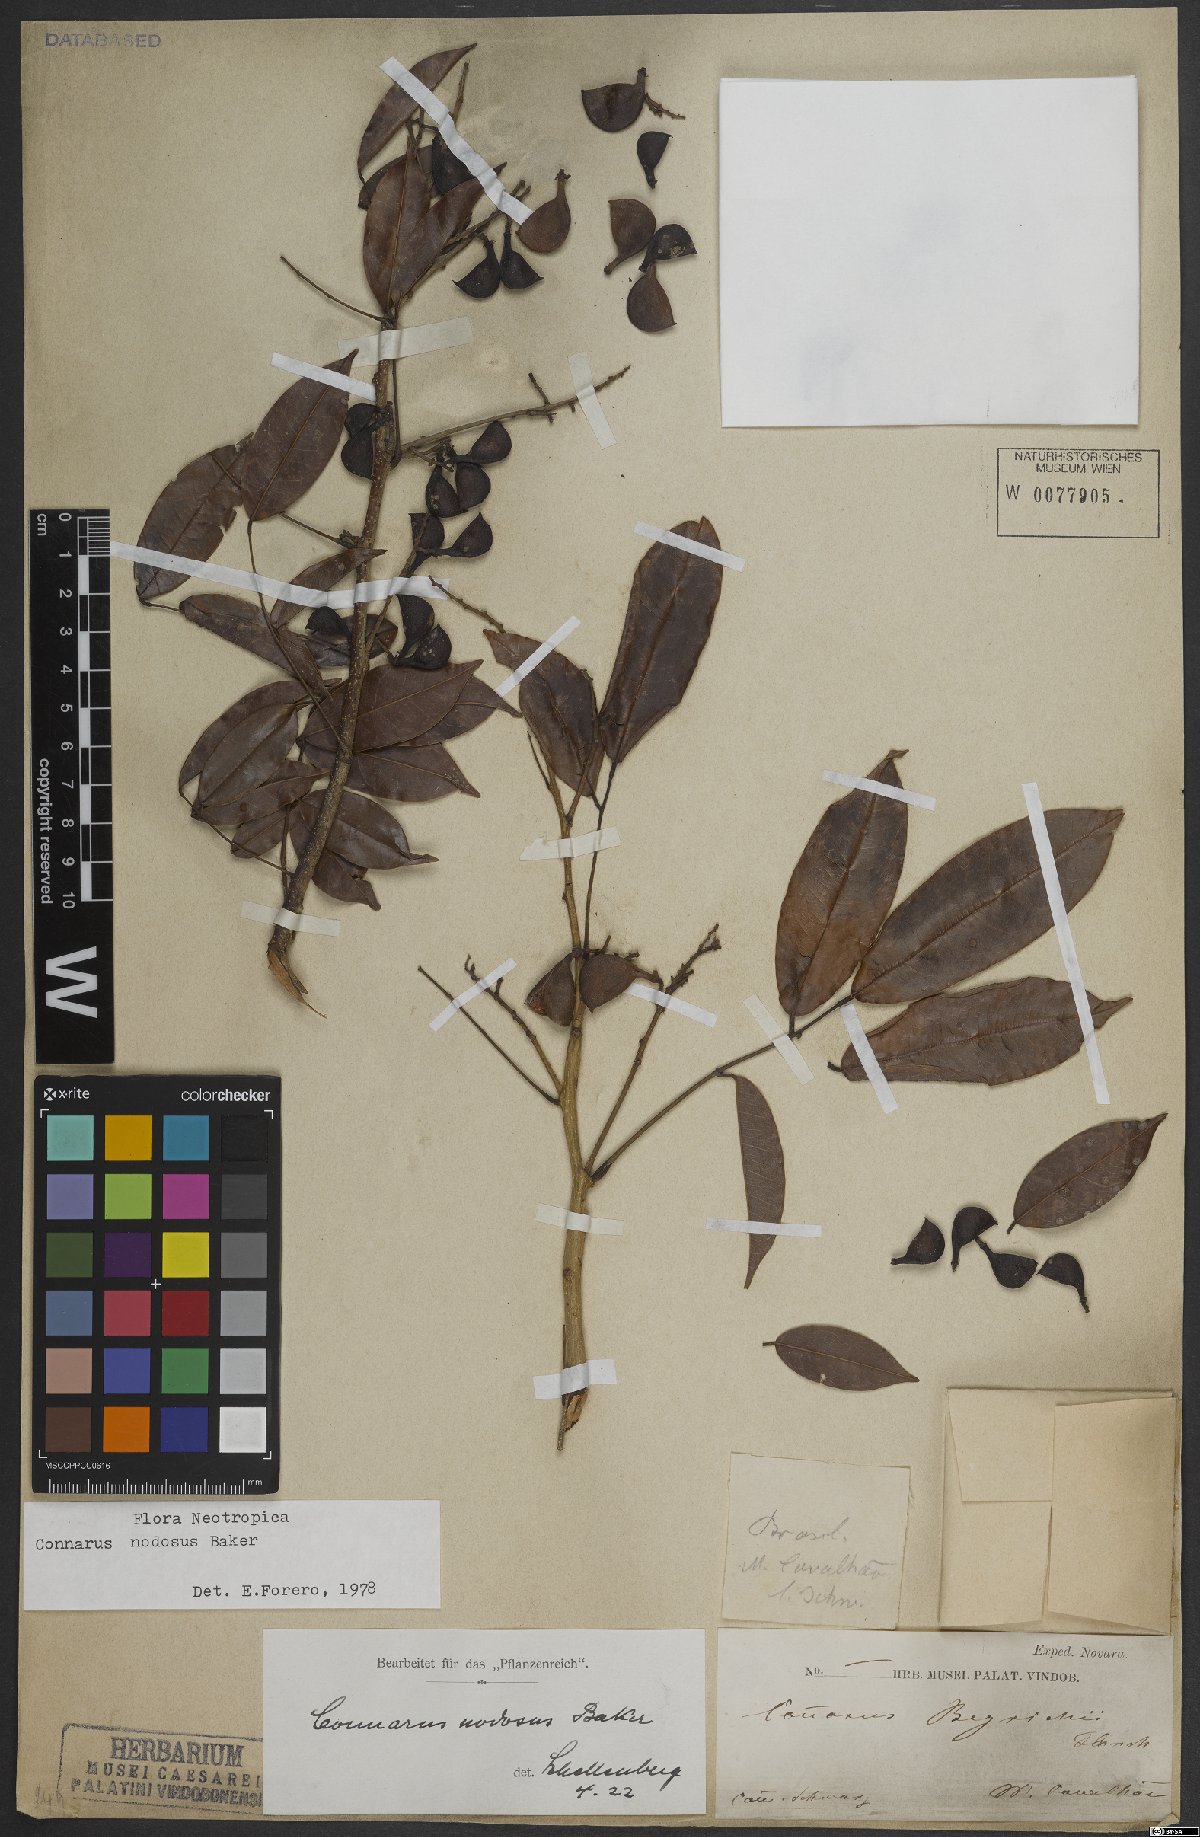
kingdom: Plantae
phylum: Tracheophyta
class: Magnoliopsida
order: Oxalidales
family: Connaraceae
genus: Connarus
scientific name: Connarus nodosus
